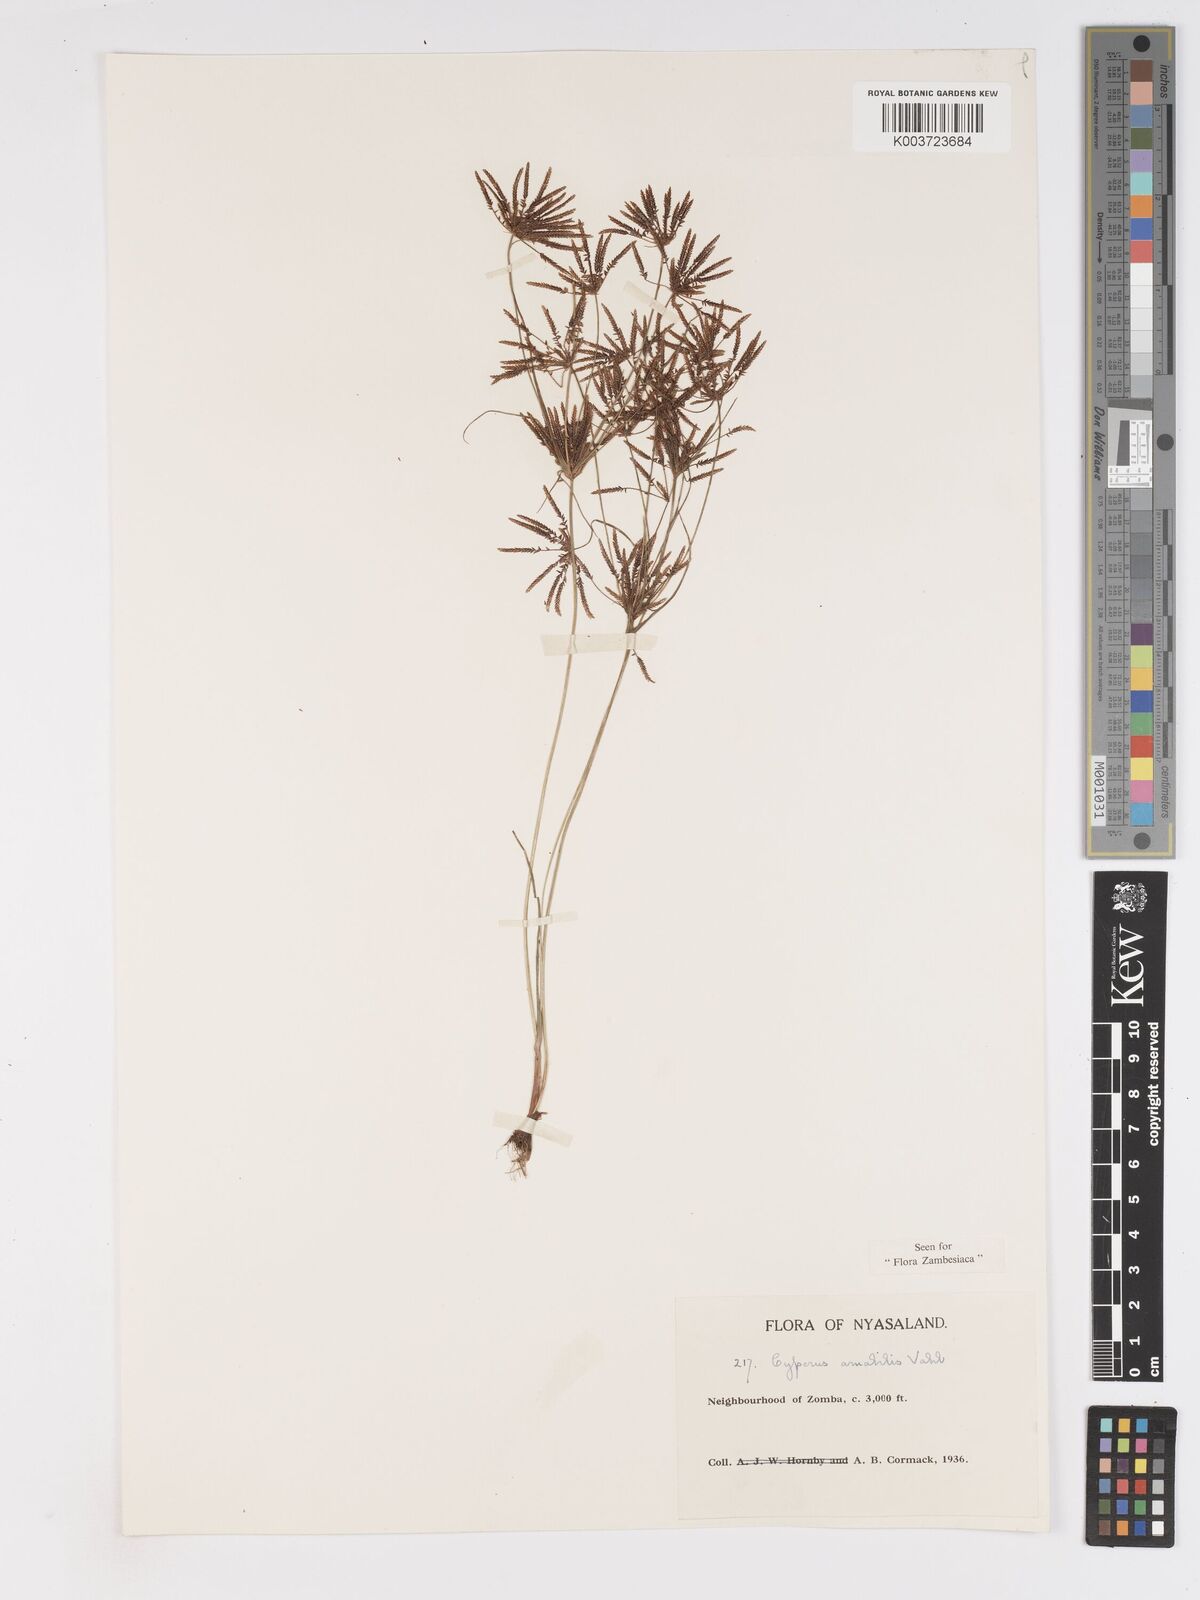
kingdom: Plantae
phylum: Tracheophyta
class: Liliopsida
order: Poales
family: Cyperaceae
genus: Cyperus
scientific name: Cyperus amabilis
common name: Foothill flat sedge
